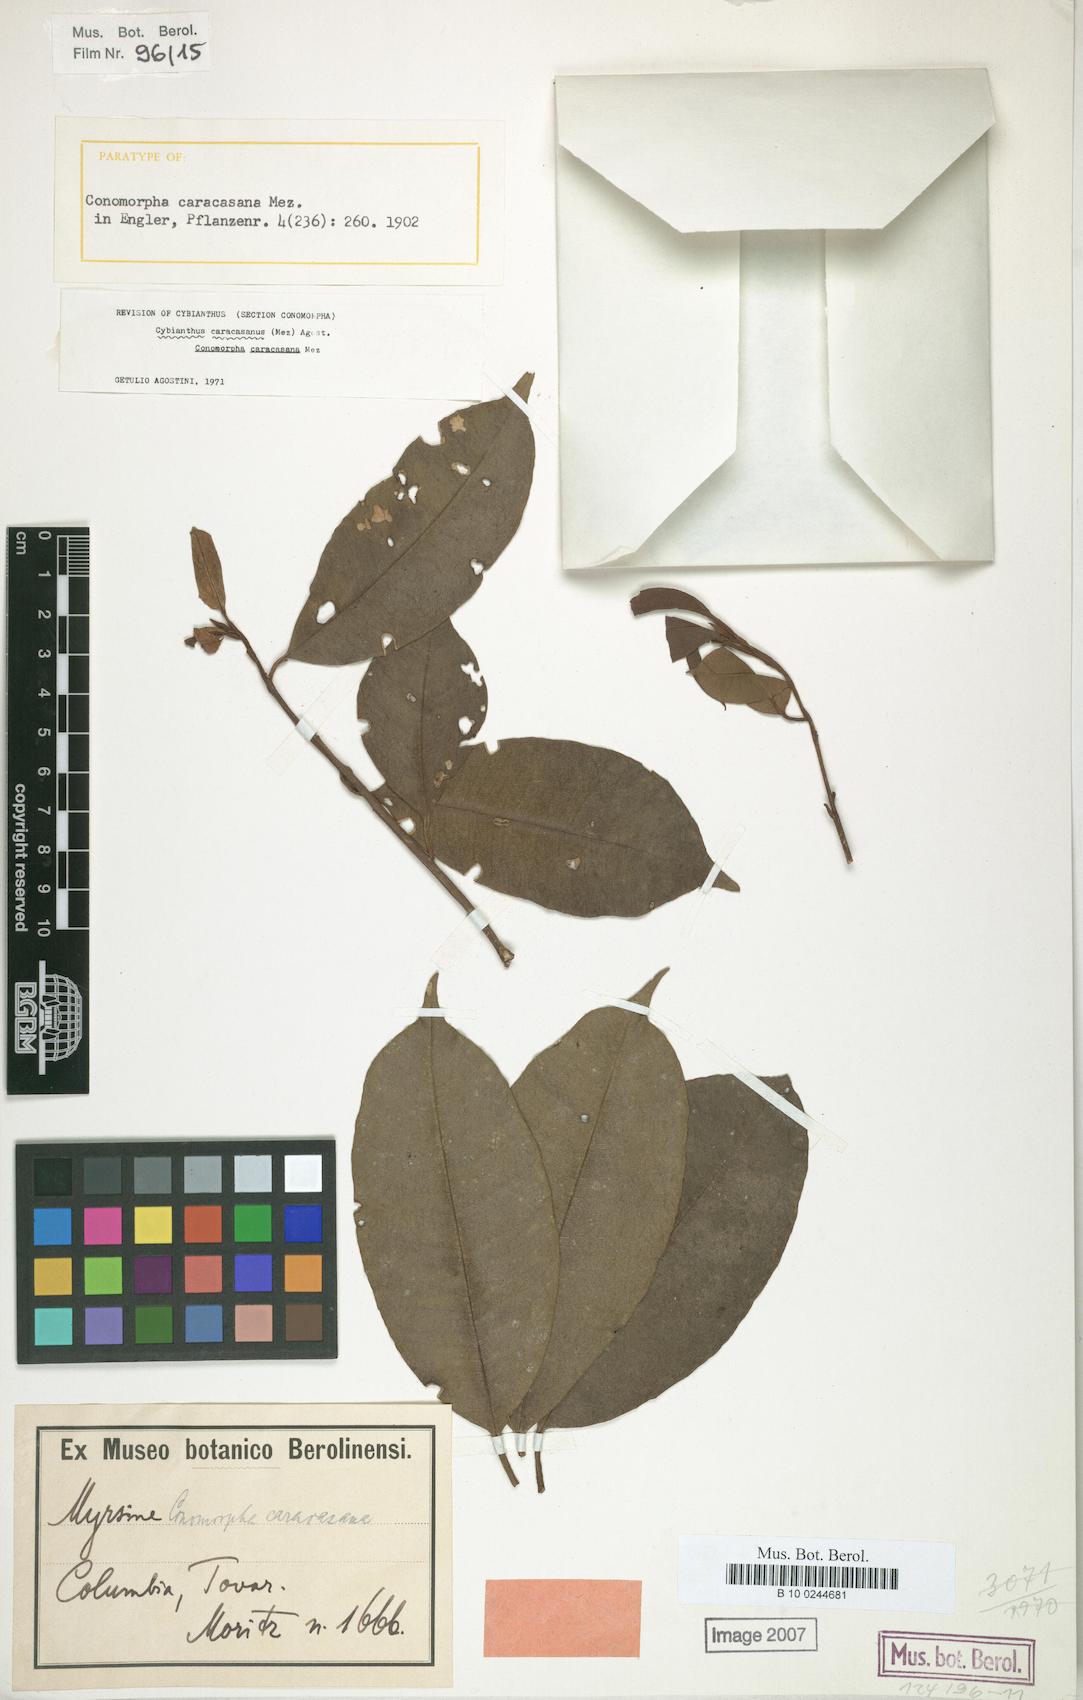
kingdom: Plantae
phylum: Tracheophyta
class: Magnoliopsida
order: Ericales
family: Primulaceae
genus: Cybianthus
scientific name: Cybianthus caracasanus
